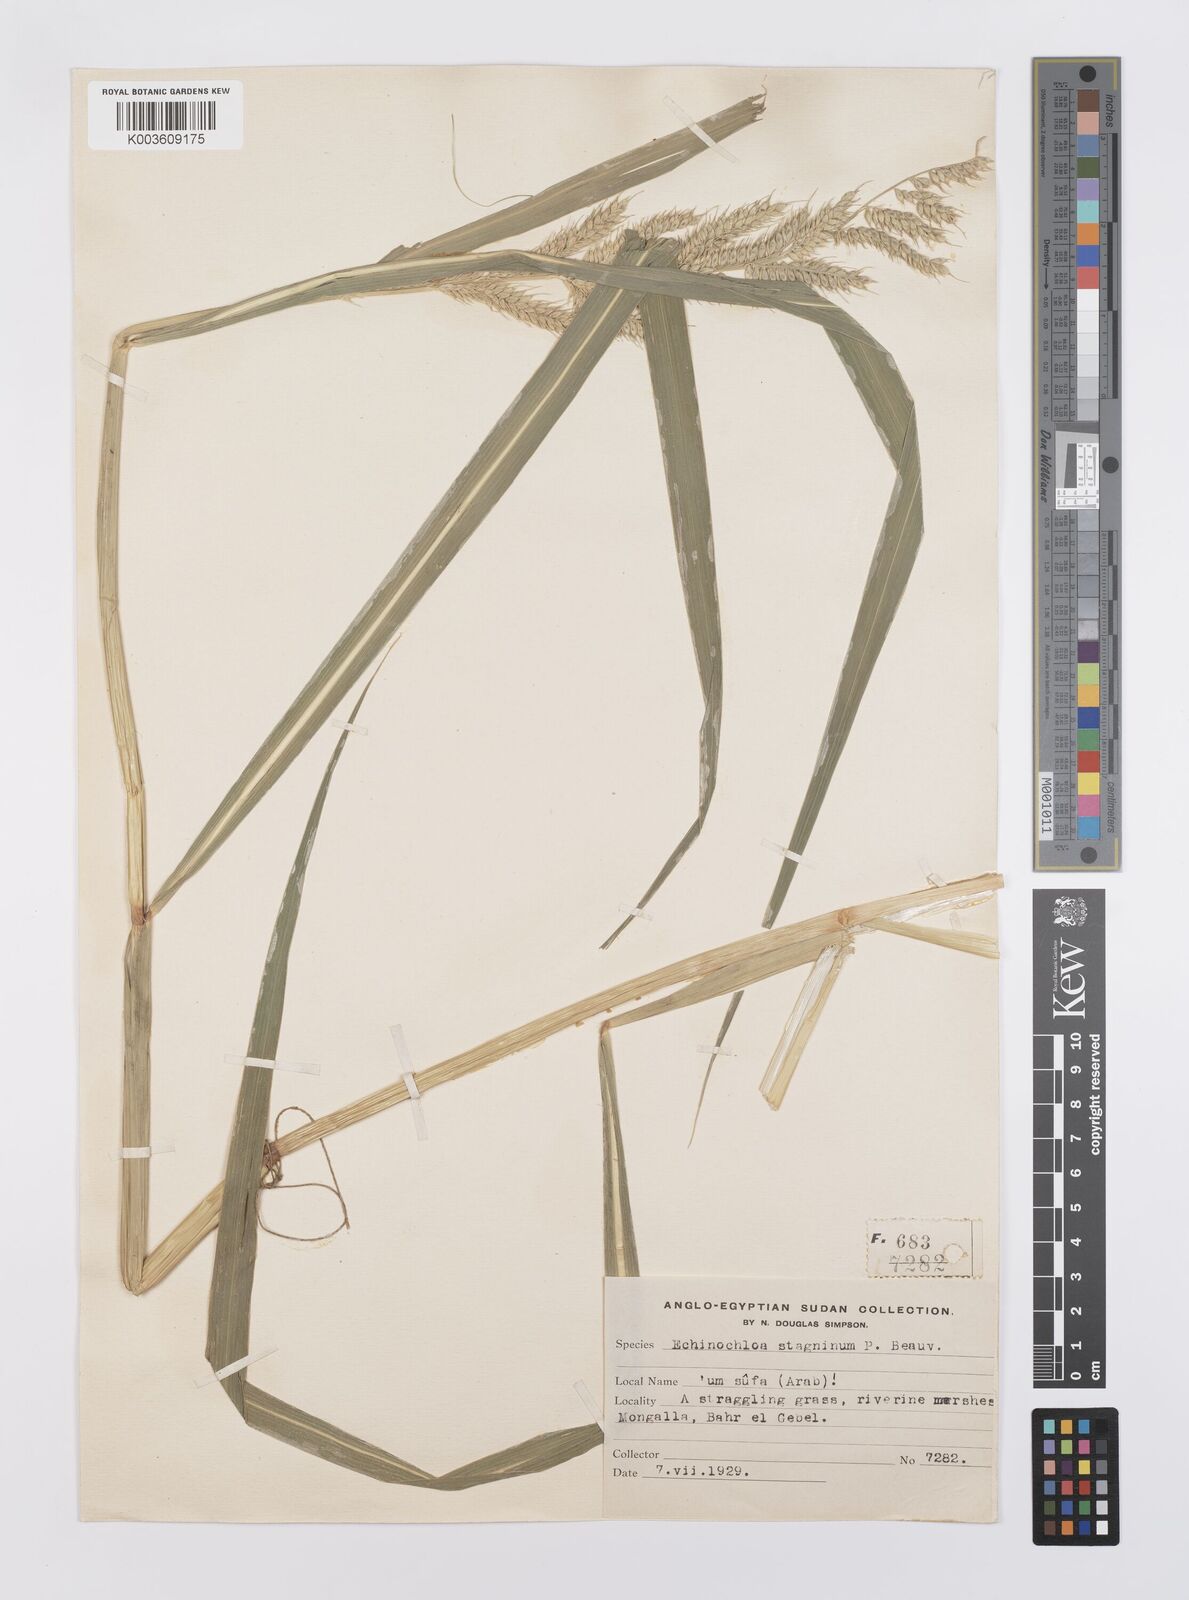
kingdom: Plantae
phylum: Tracheophyta
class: Liliopsida
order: Poales
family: Poaceae
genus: Echinochloa
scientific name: Echinochloa stagnina
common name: Burgu grass
